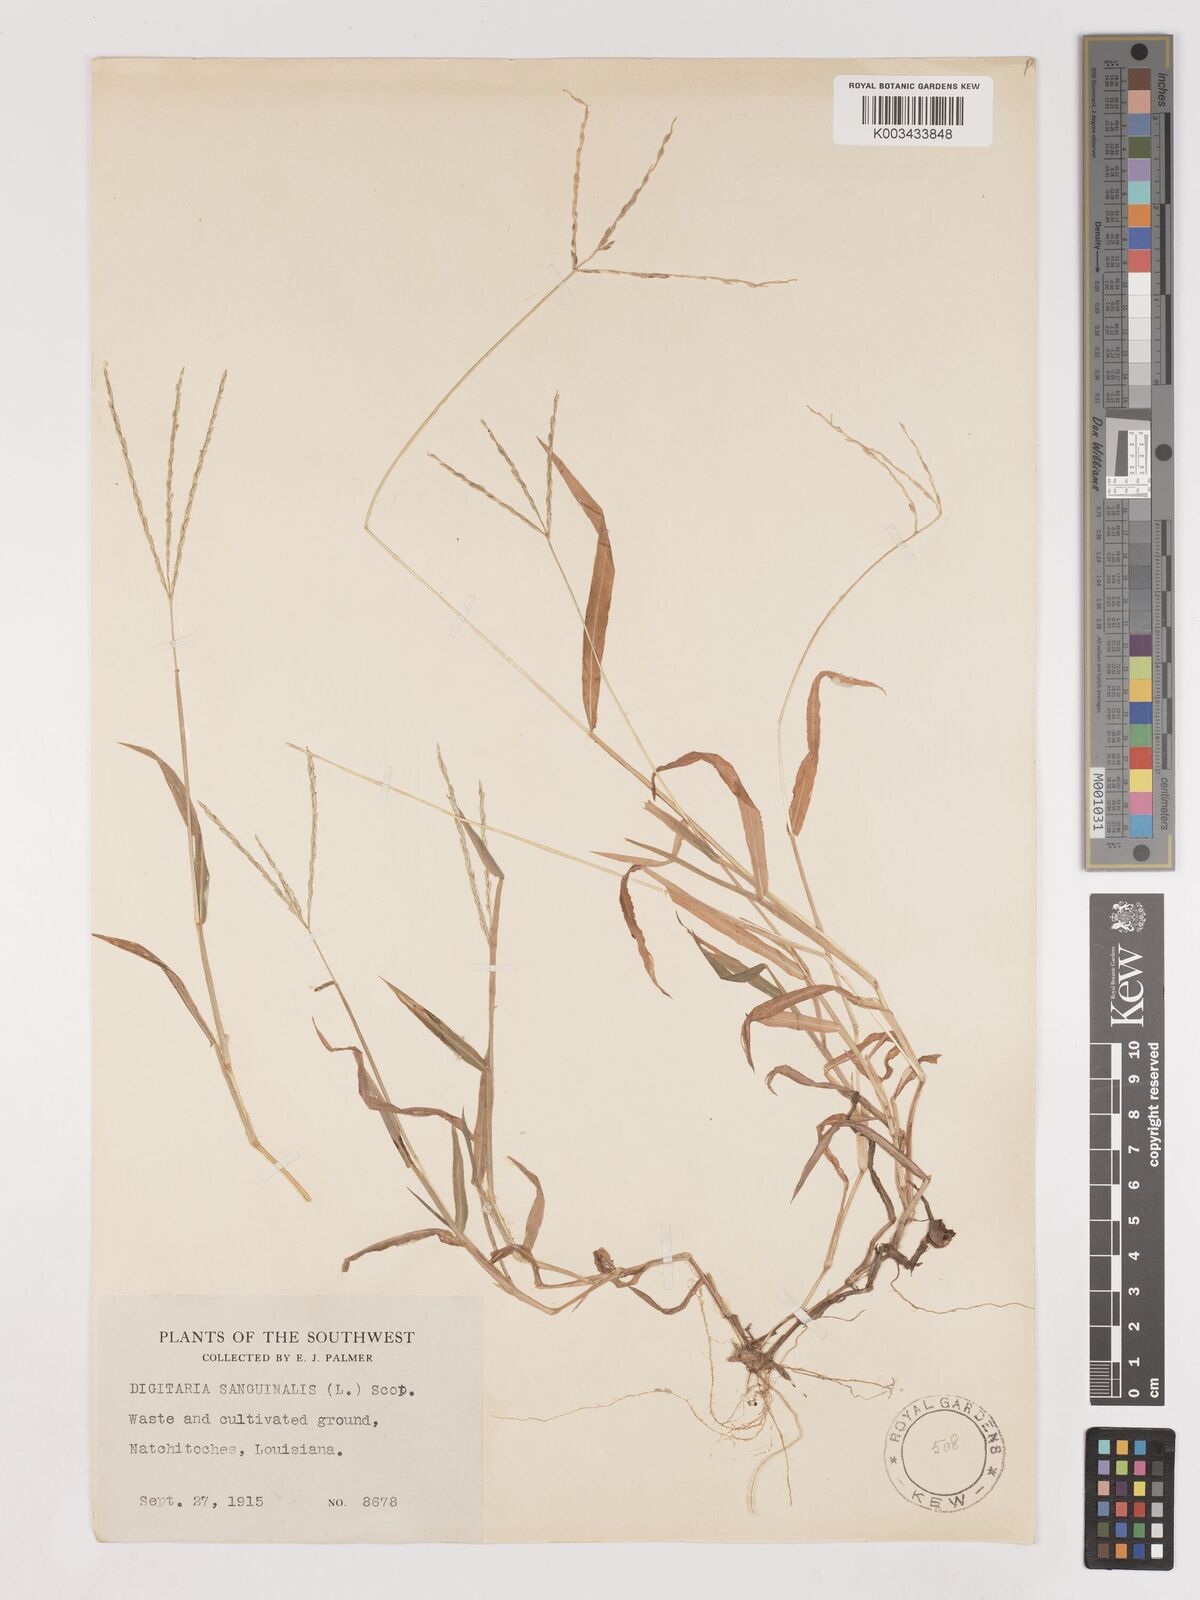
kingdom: Plantae
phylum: Tracheophyta
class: Liliopsida
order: Poales
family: Poaceae
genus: Digitaria
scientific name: Digitaria ciliaris
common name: Tropical finger-grass
